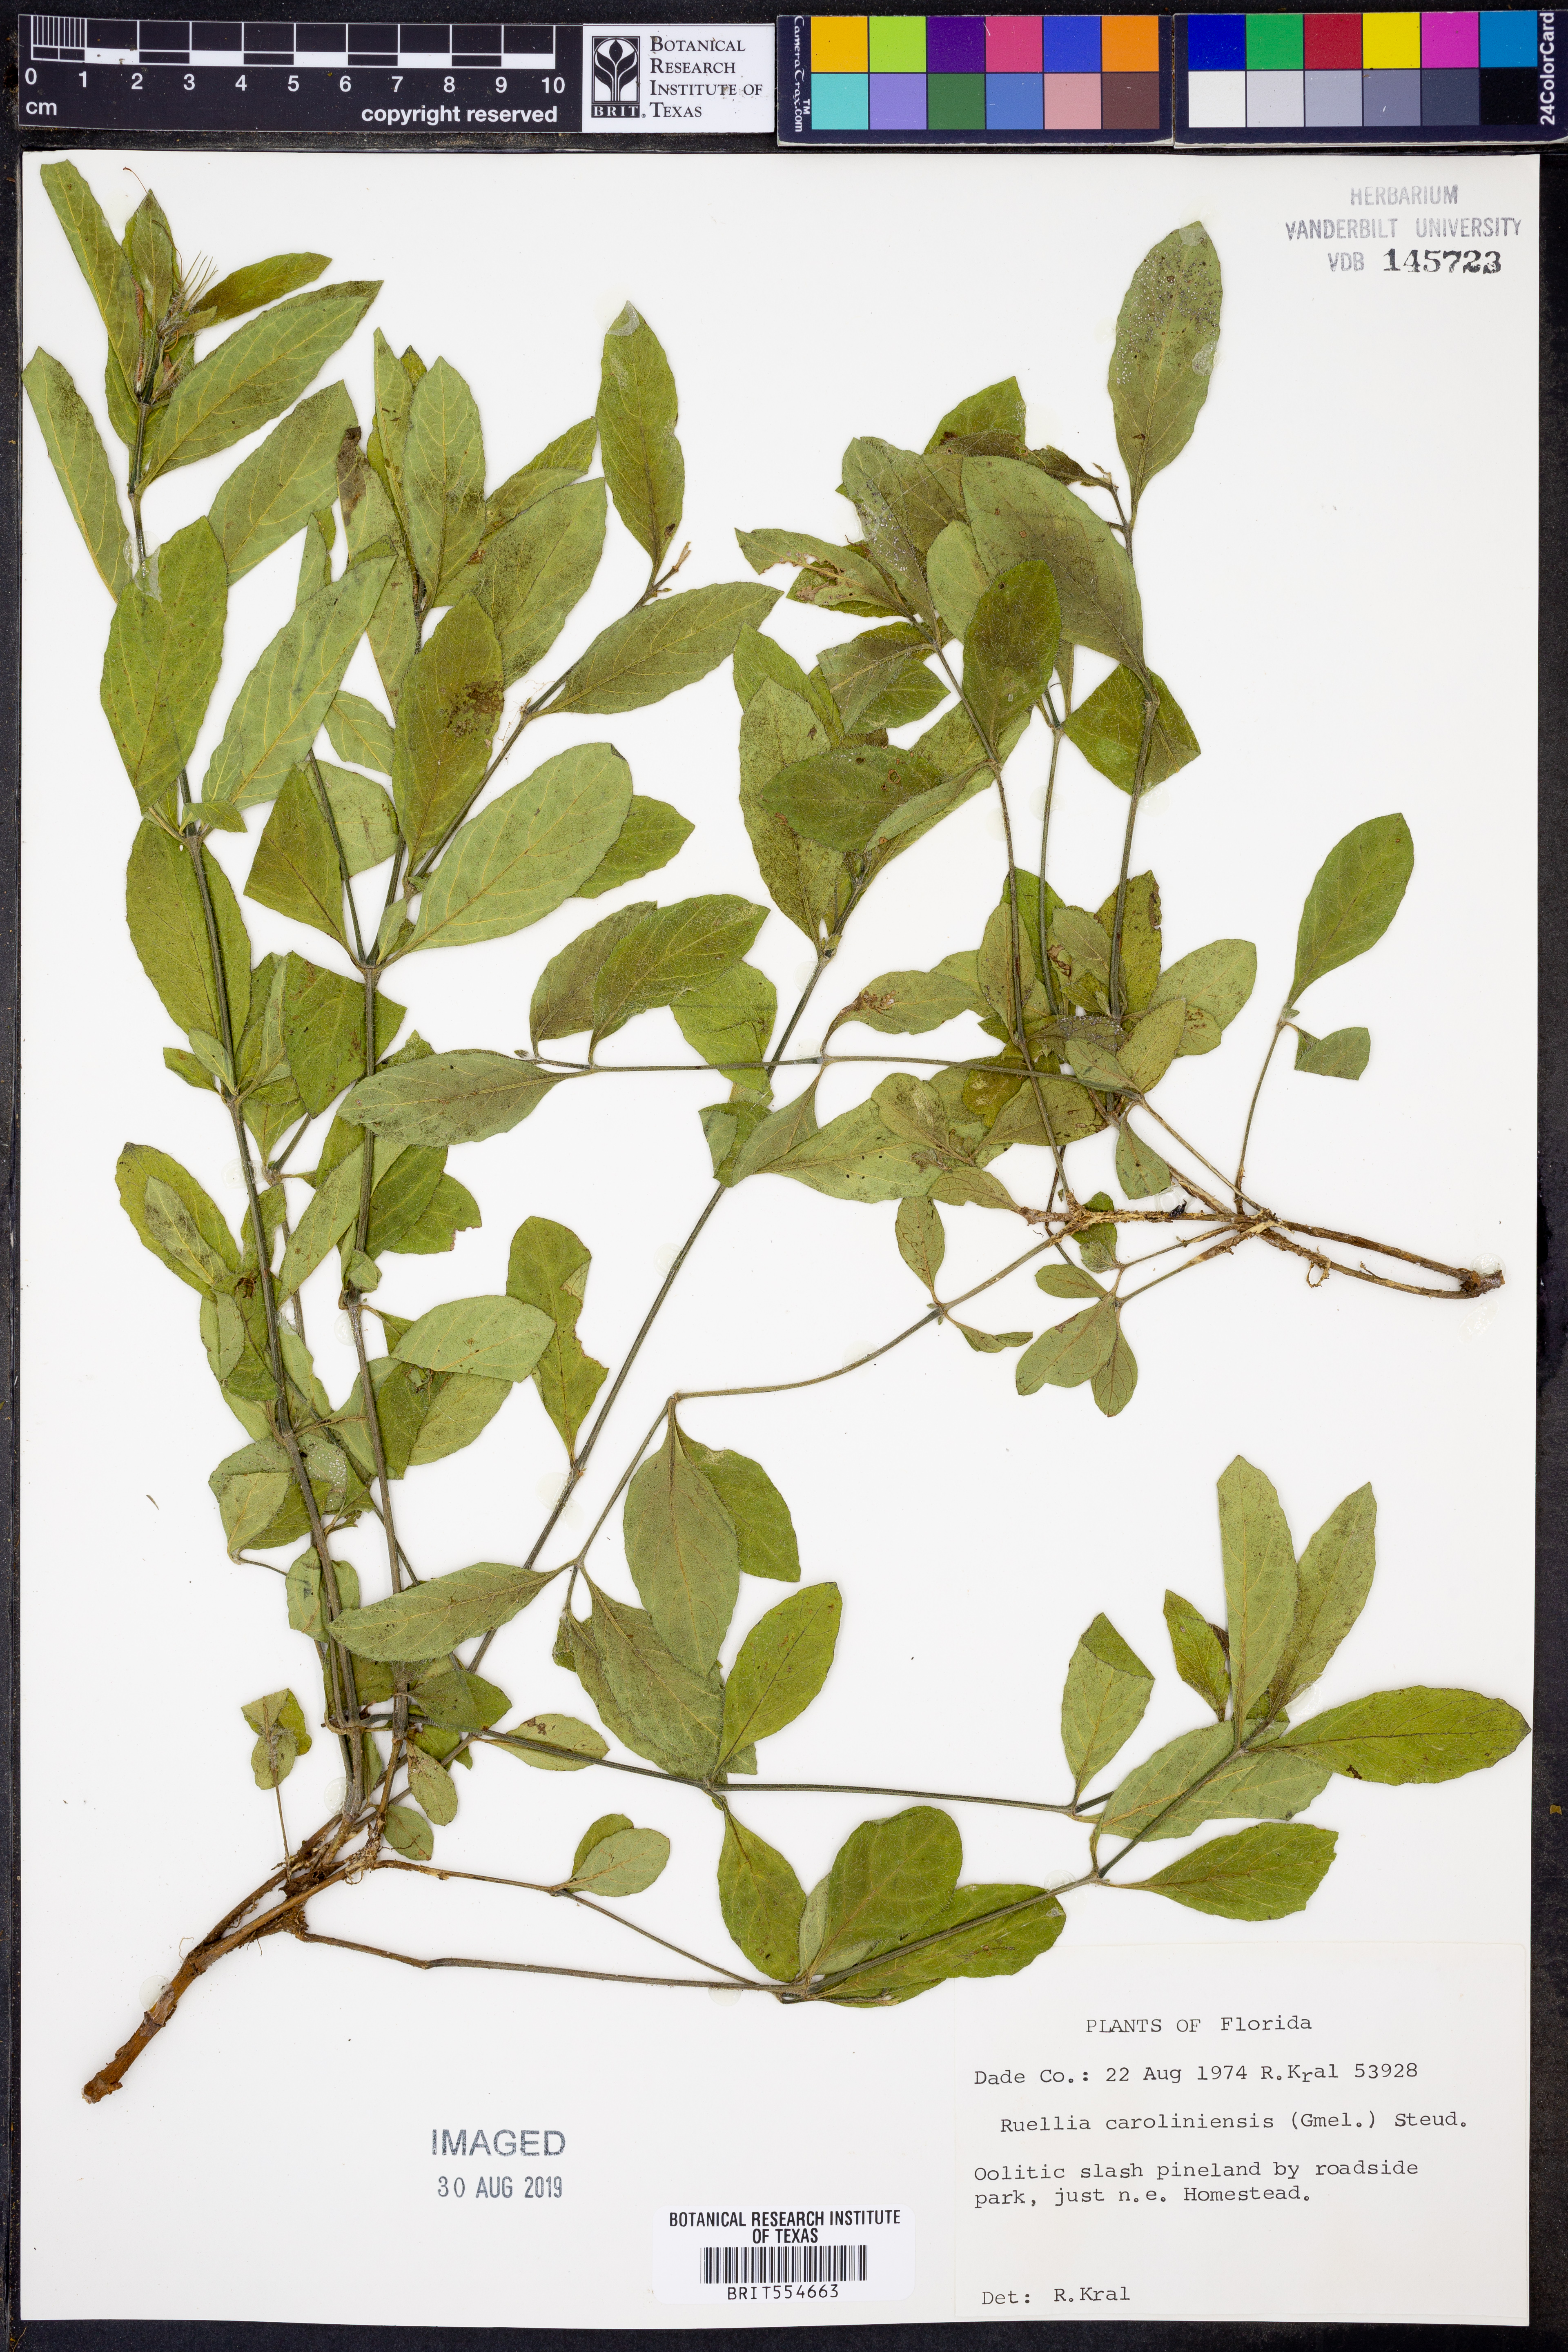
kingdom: Plantae
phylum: Tracheophyta
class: Magnoliopsida
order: Lamiales
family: Acanthaceae
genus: Ruellia
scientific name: Ruellia caroliniensis
